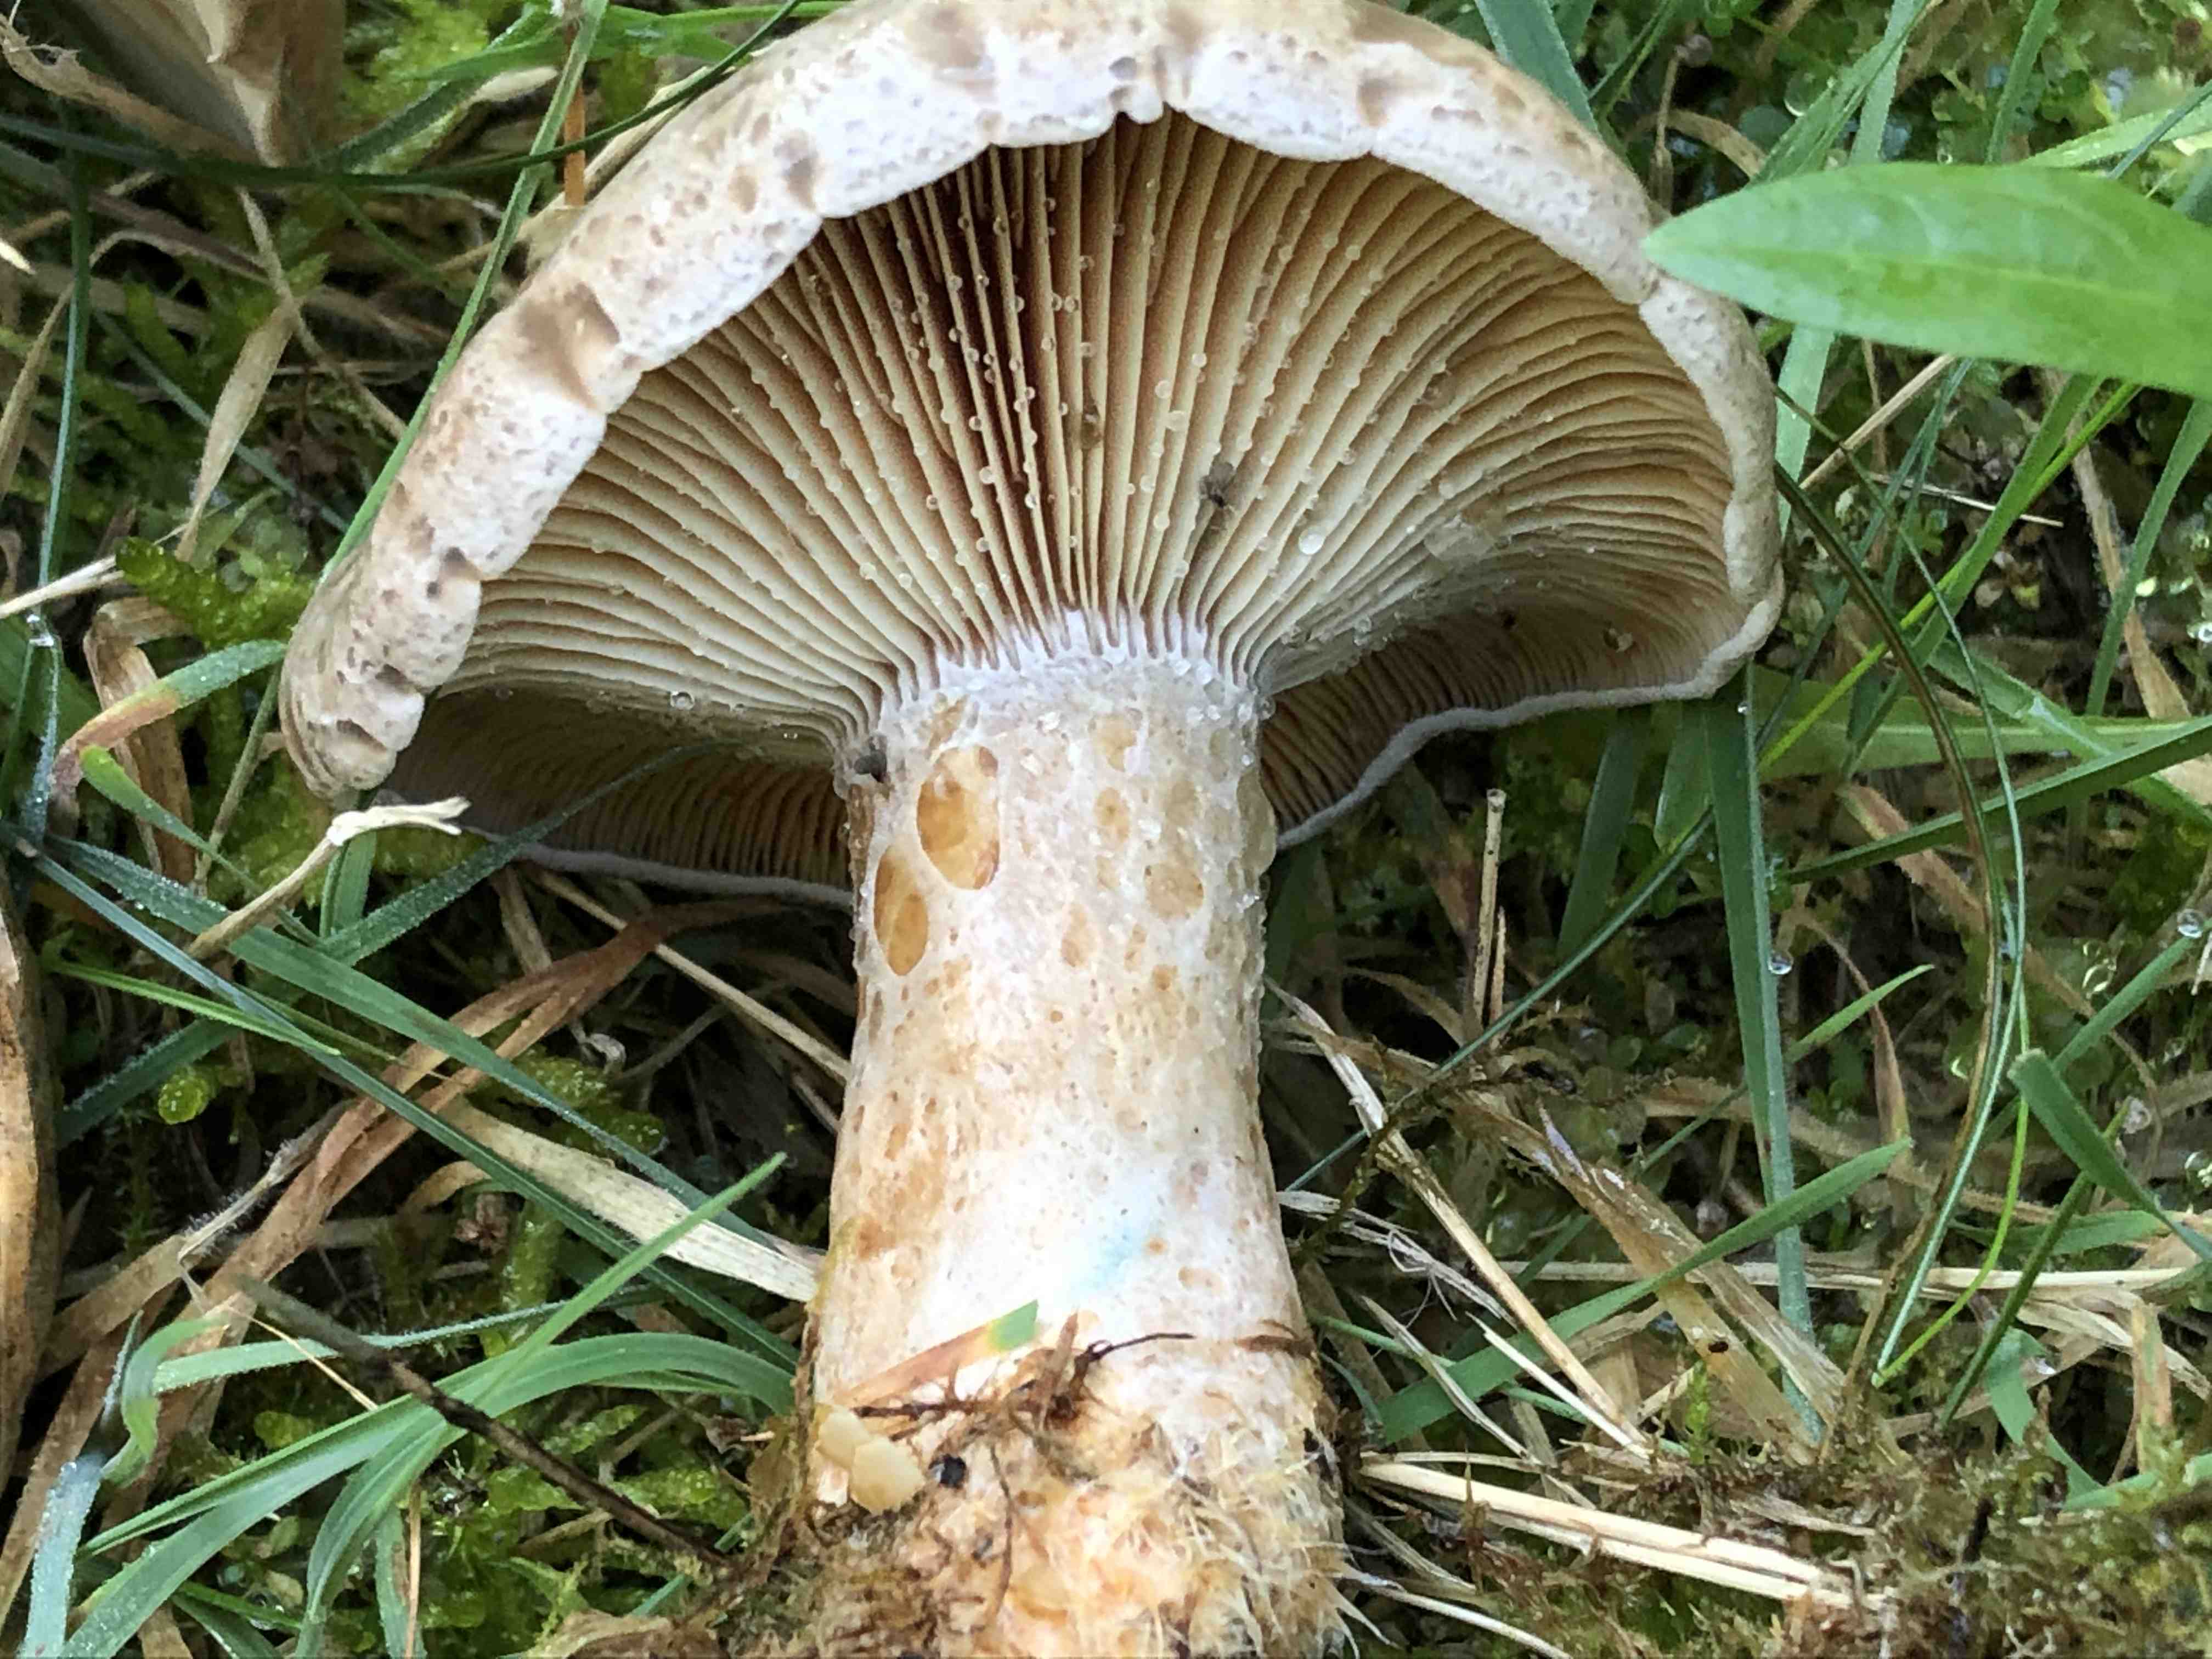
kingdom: Fungi
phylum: Basidiomycota
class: Agaricomycetes
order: Russulales
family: Russulaceae
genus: Lactarius
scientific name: Lactarius quieticolor
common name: tvefarvet mælkehat
